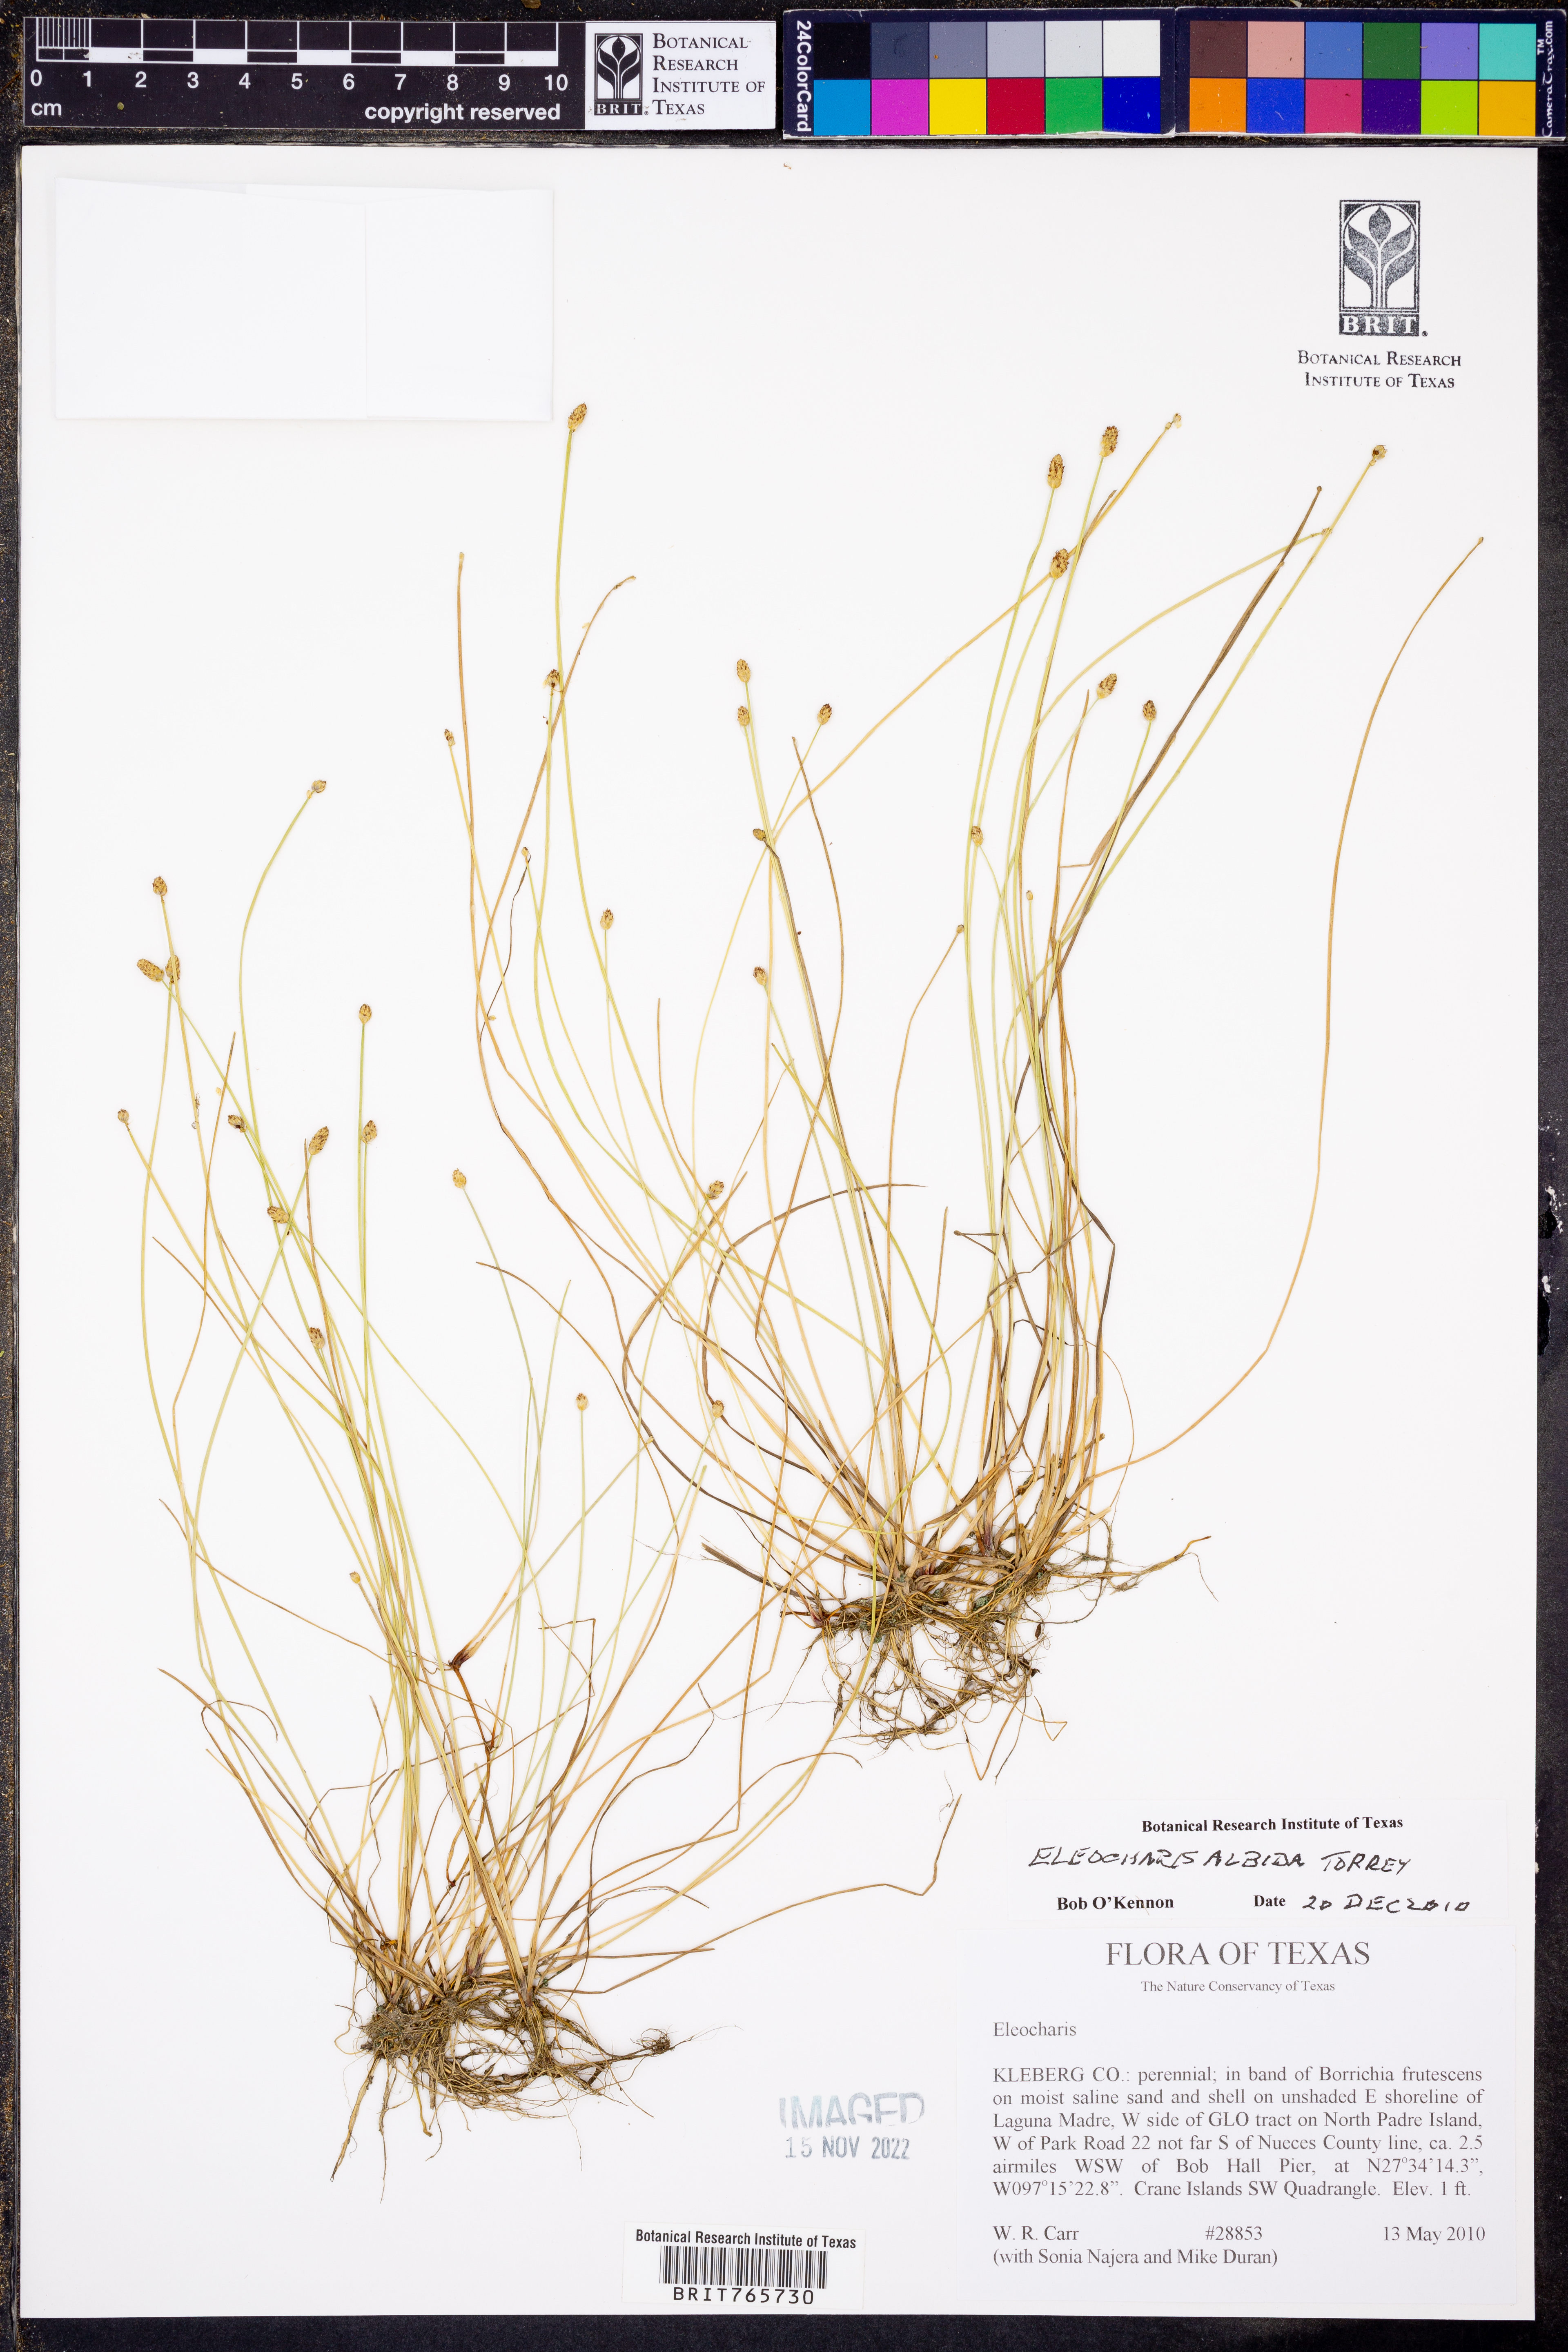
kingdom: Plantae
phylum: Tracheophyta
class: Liliopsida
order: Poales
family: Cyperaceae
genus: Eleocharis
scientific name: Eleocharis albida
